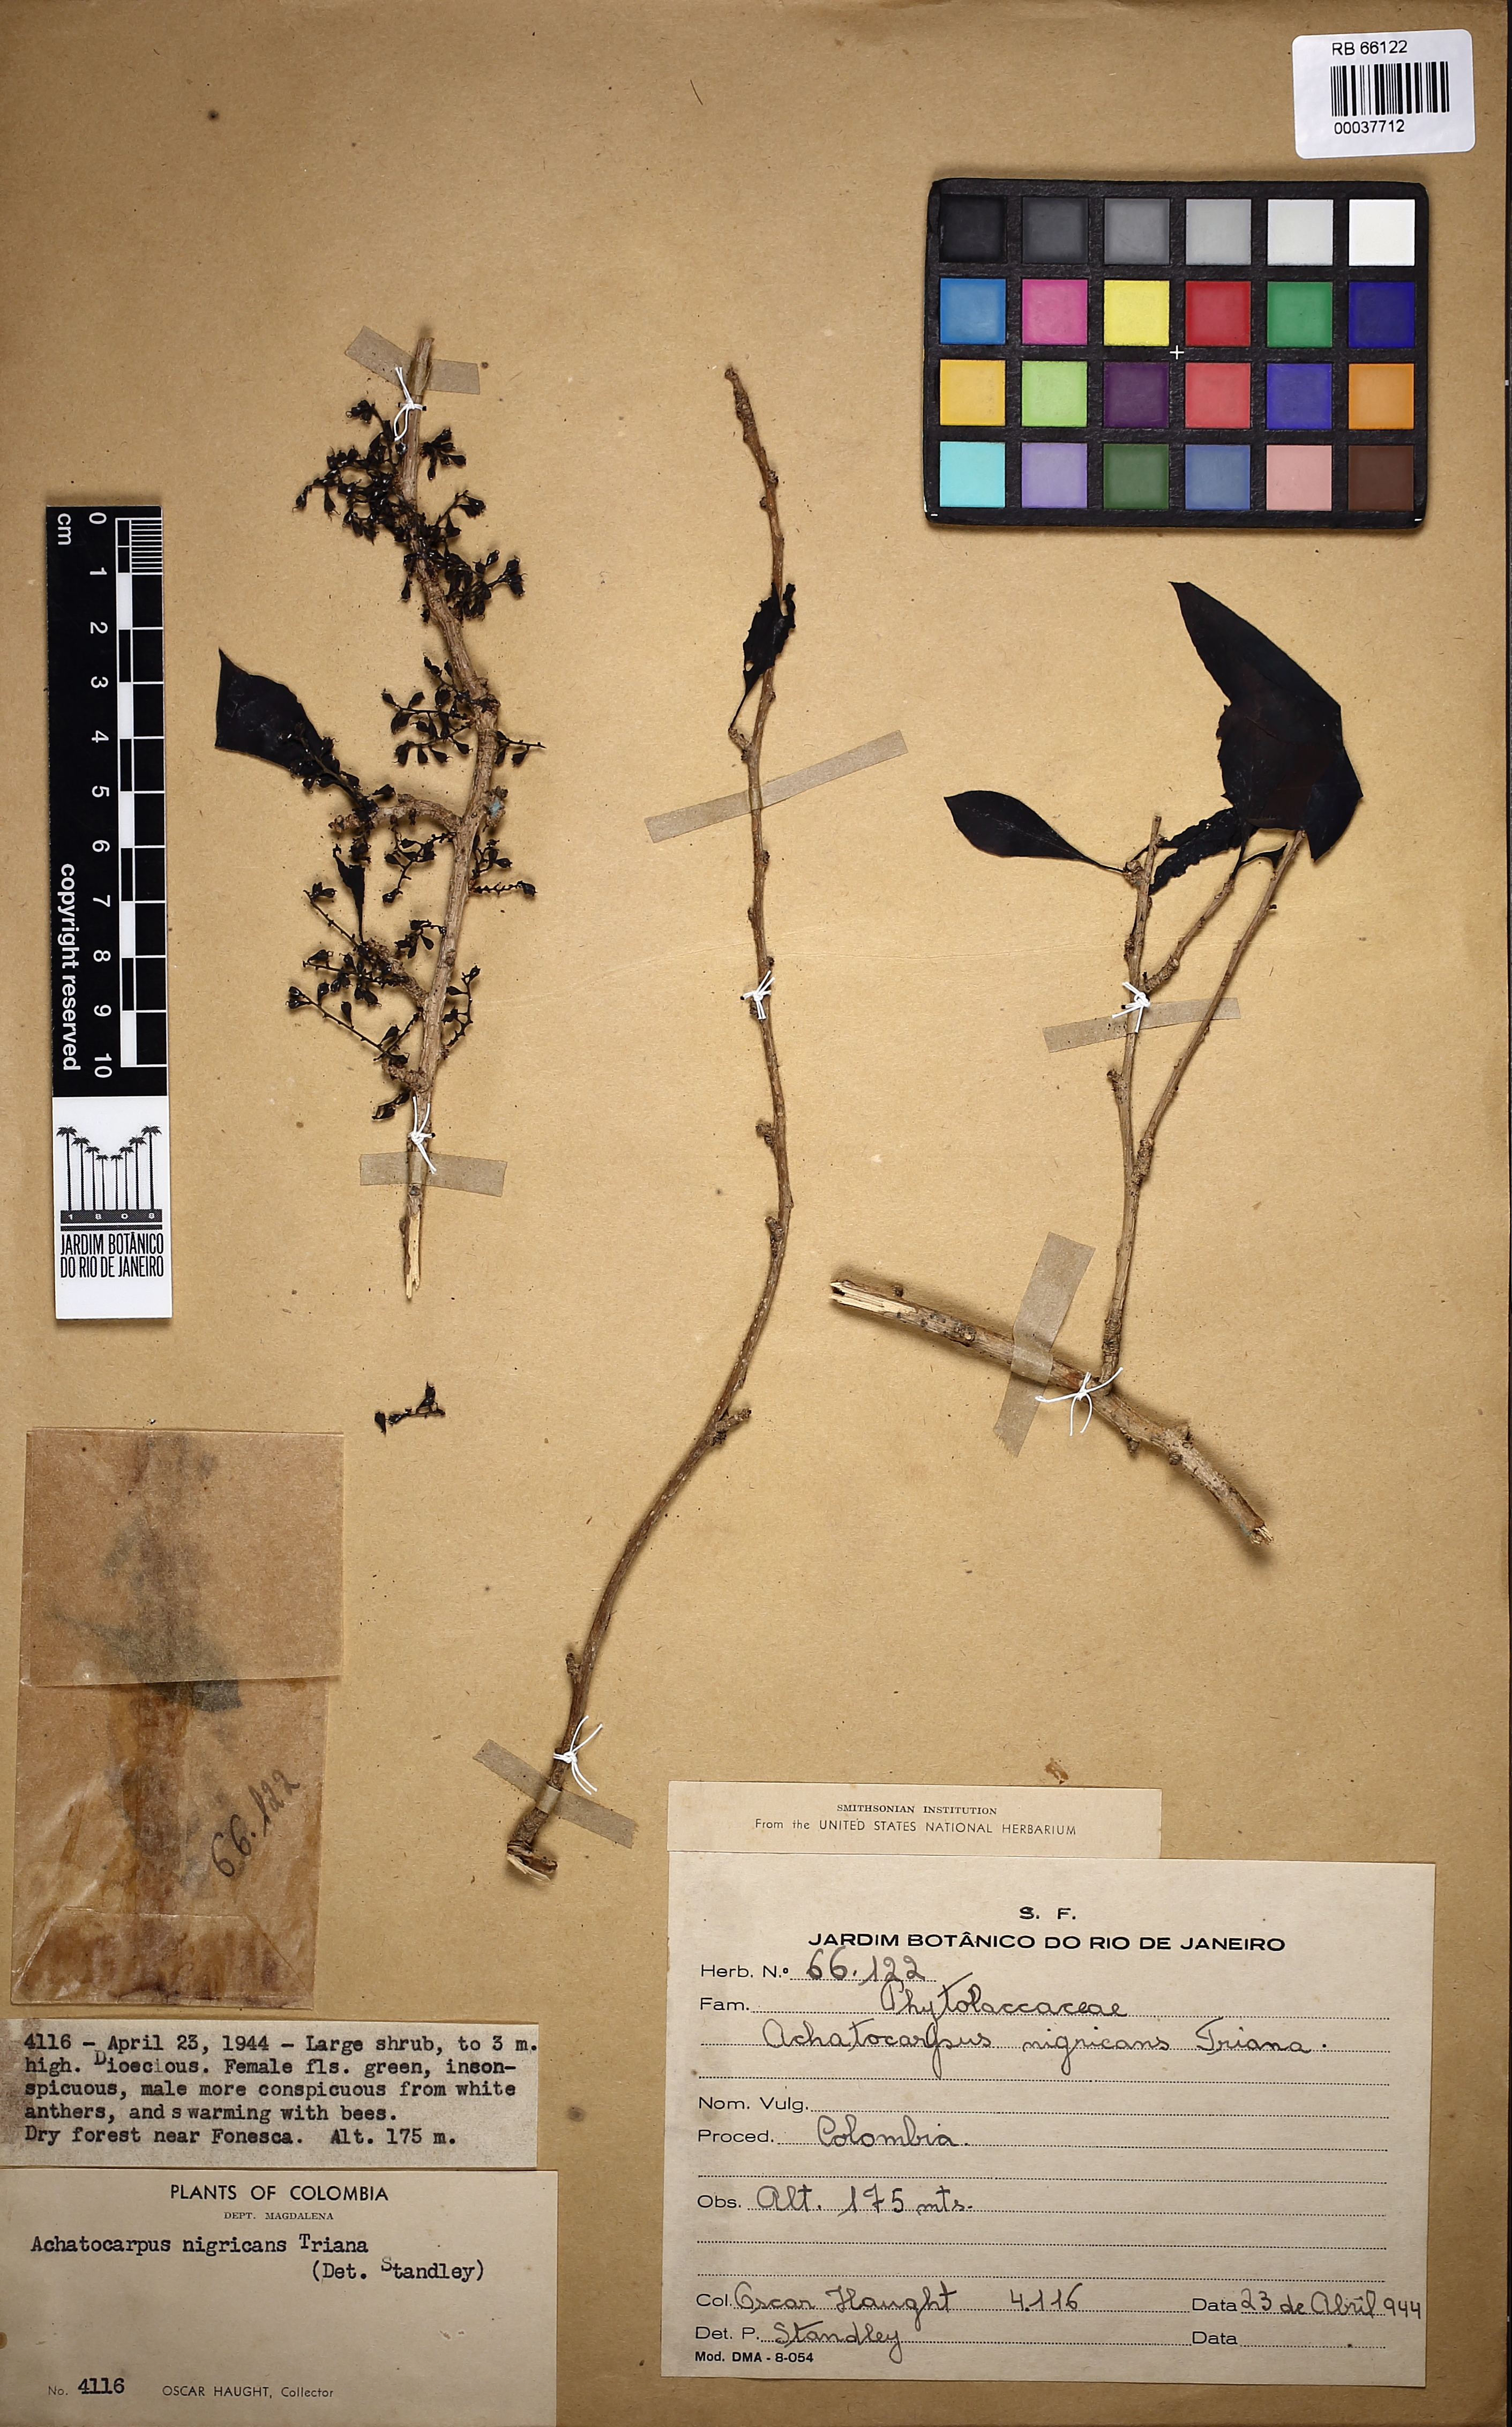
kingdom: Plantae
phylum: Tracheophyta
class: Magnoliopsida
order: Caryophyllales
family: Achatocarpaceae
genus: Achatocarpus
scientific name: Achatocarpus nigricans
